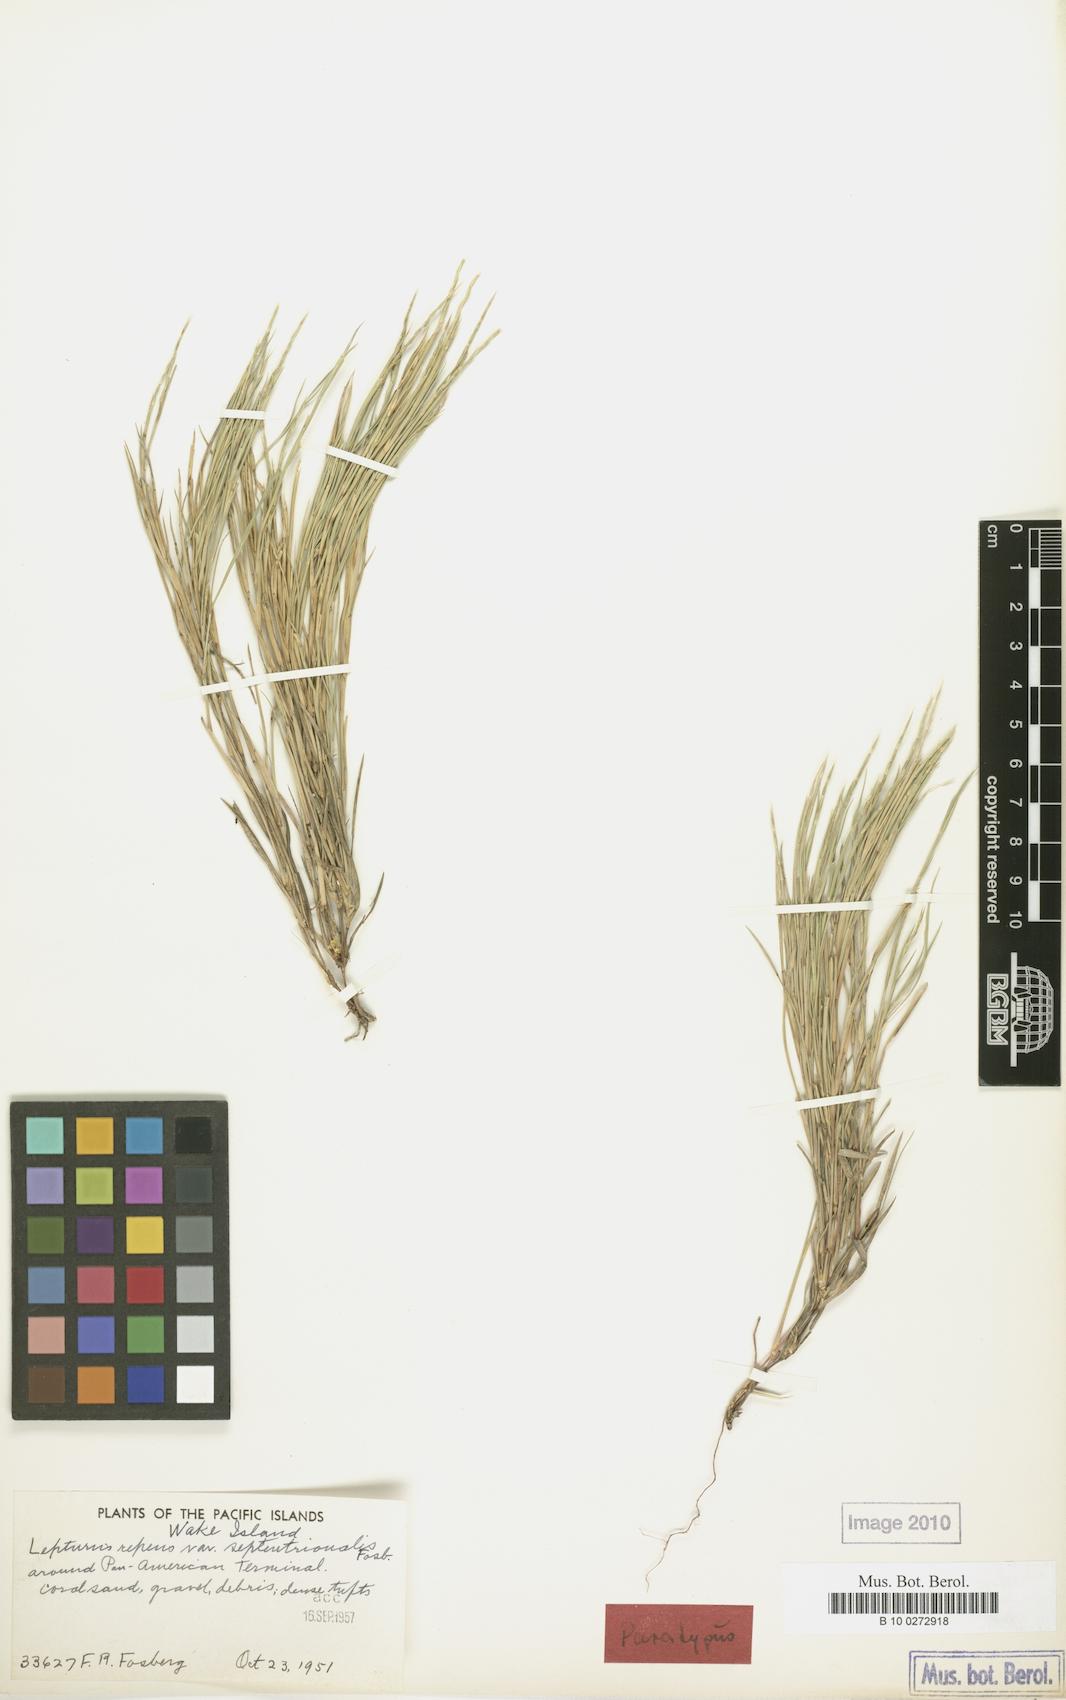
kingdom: Plantae
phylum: Tracheophyta
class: Liliopsida
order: Poales
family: Poaceae
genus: Lepturus
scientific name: Lepturus repens
